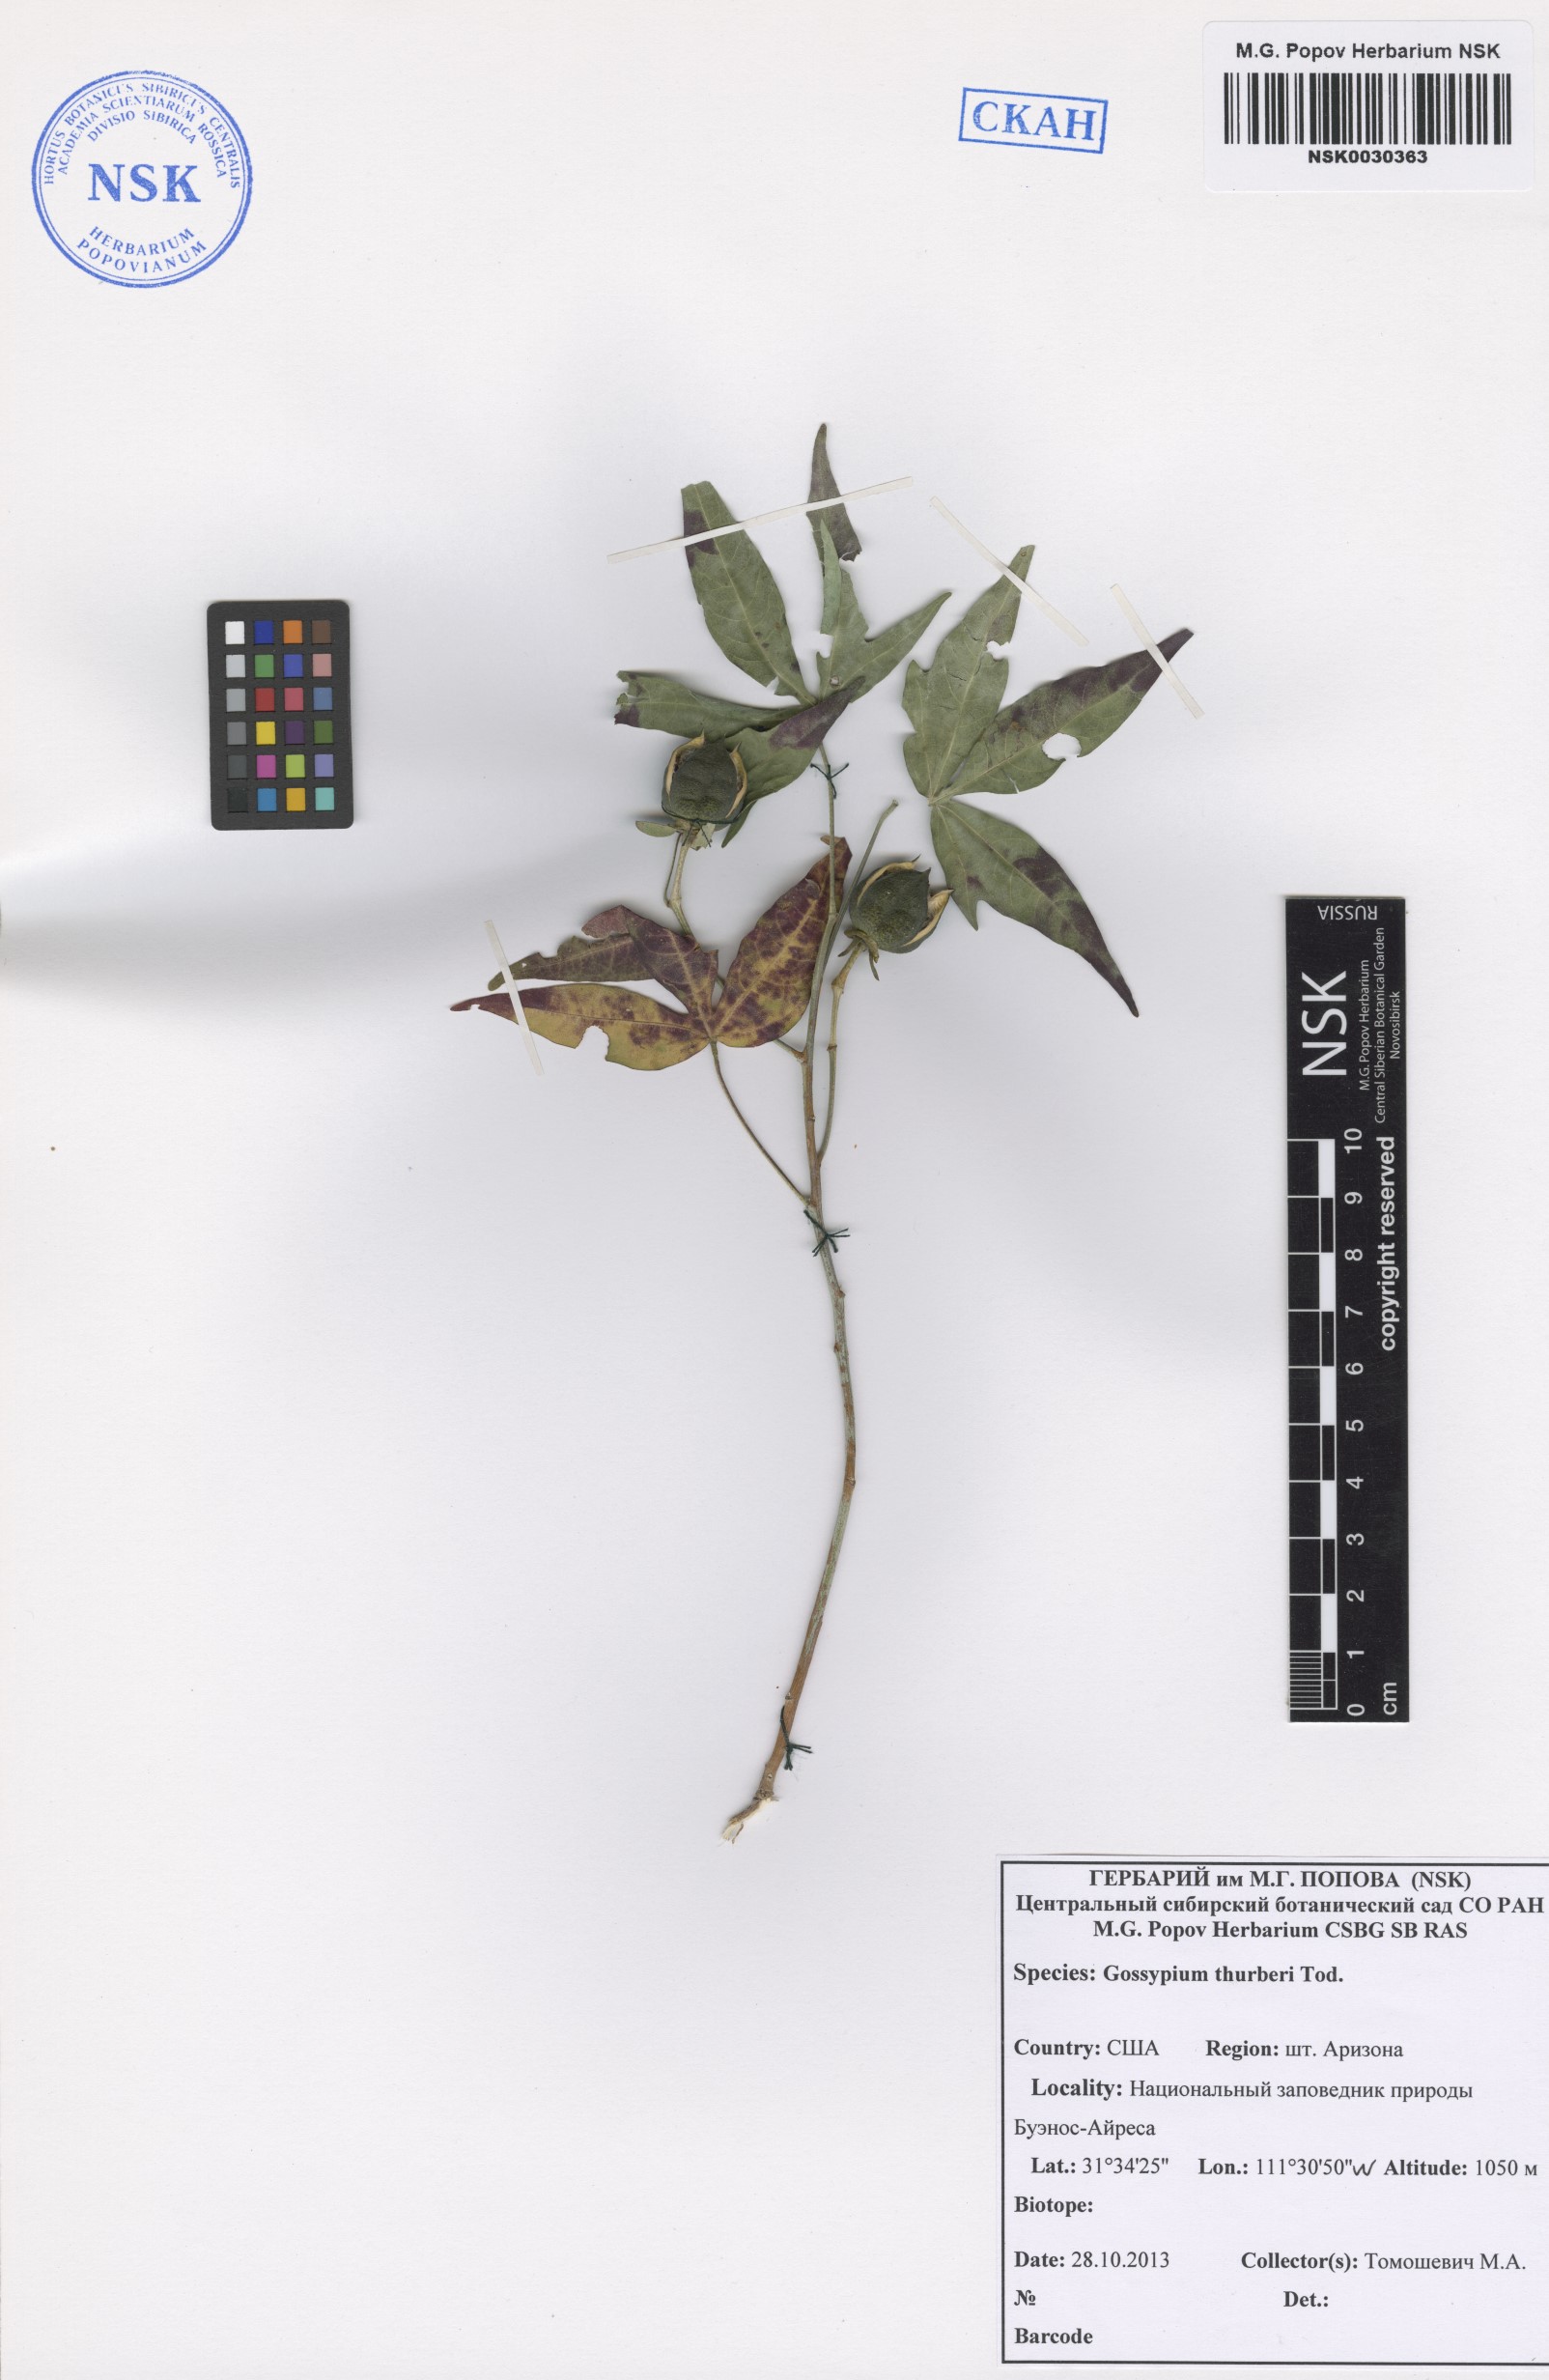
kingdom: Plantae
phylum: Tracheophyta
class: Magnoliopsida
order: Malvales
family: Malvaceae
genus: Gossypium
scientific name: Gossypium thurberi
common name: Desert cotton
